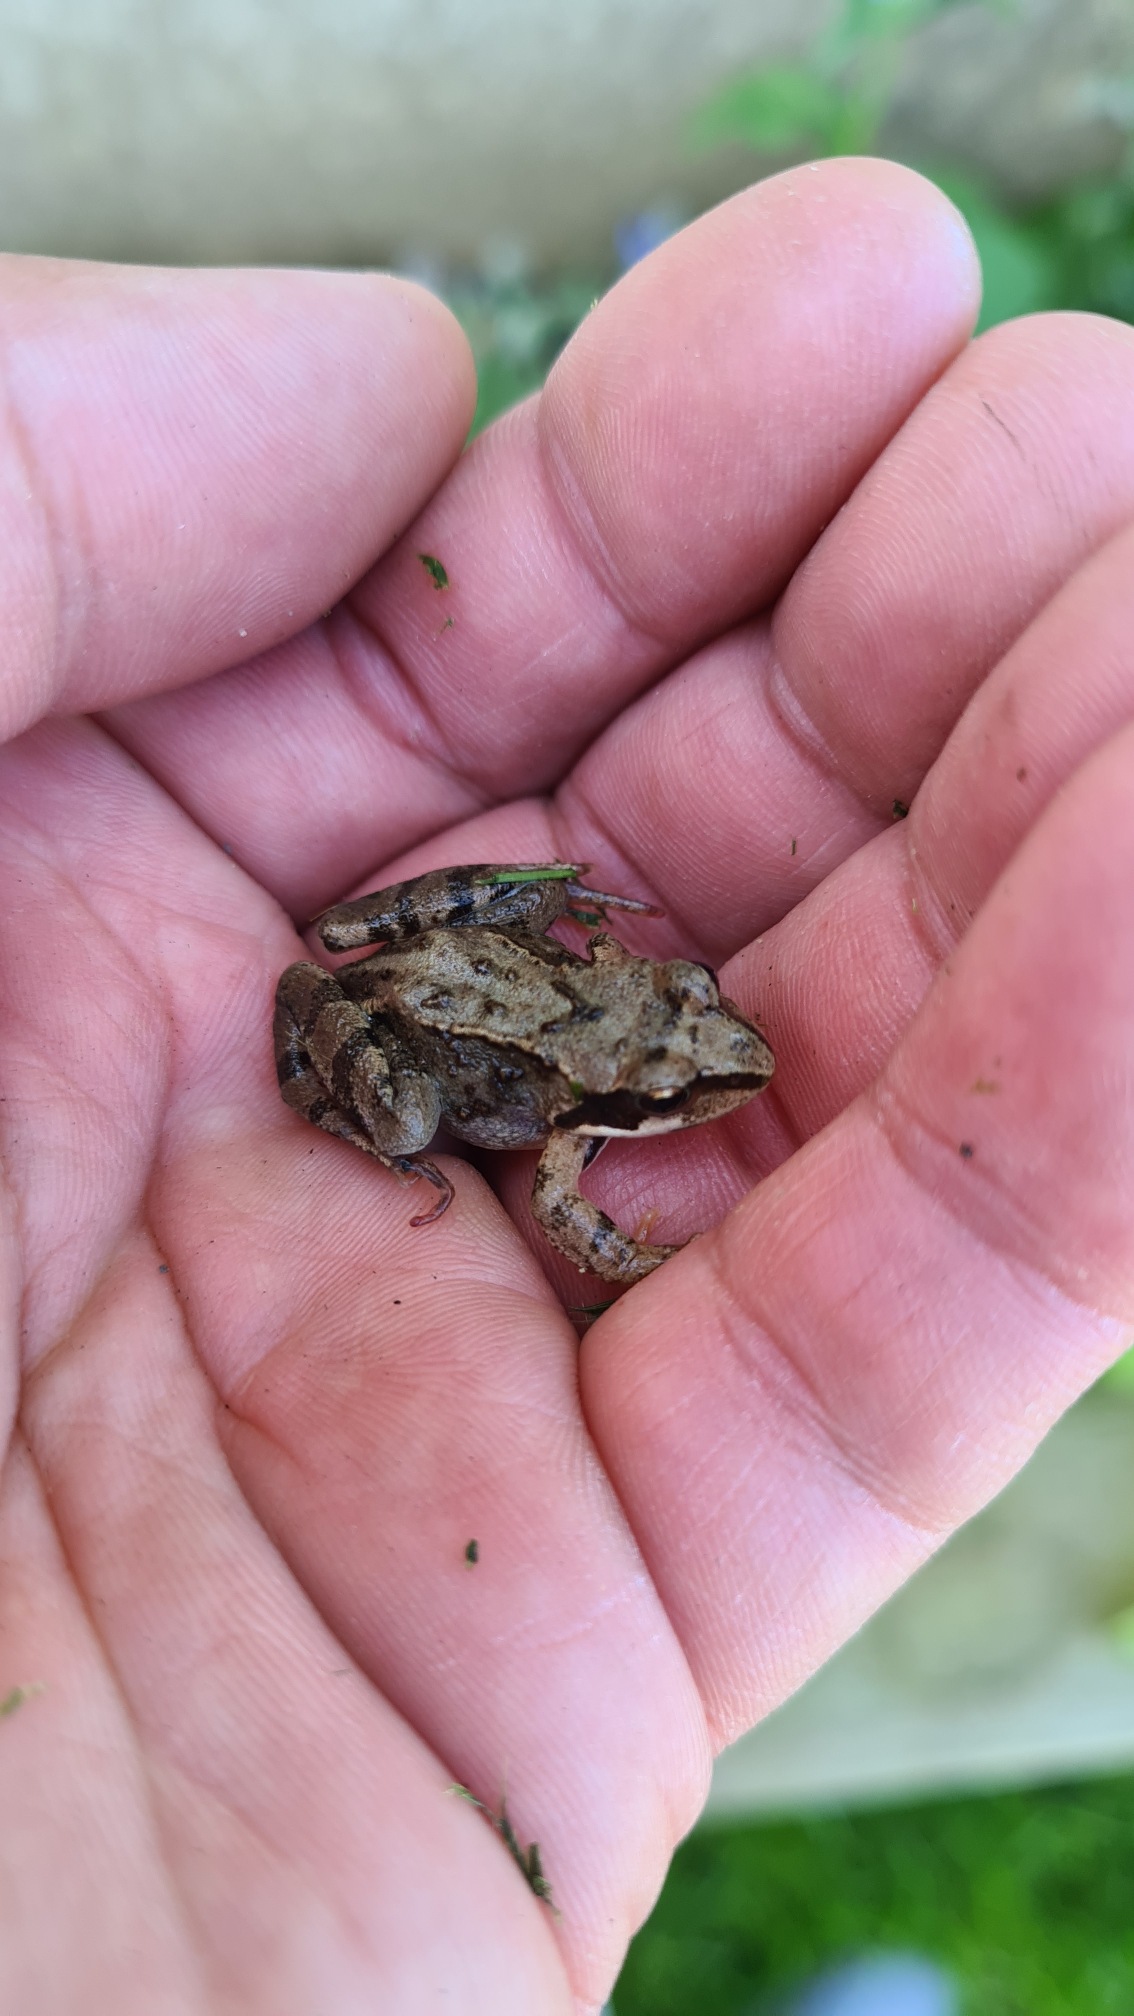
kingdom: Animalia
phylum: Chordata
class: Amphibia
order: Anura
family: Ranidae
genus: Rana
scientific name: Rana temporaria
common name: Butsnudet frø
